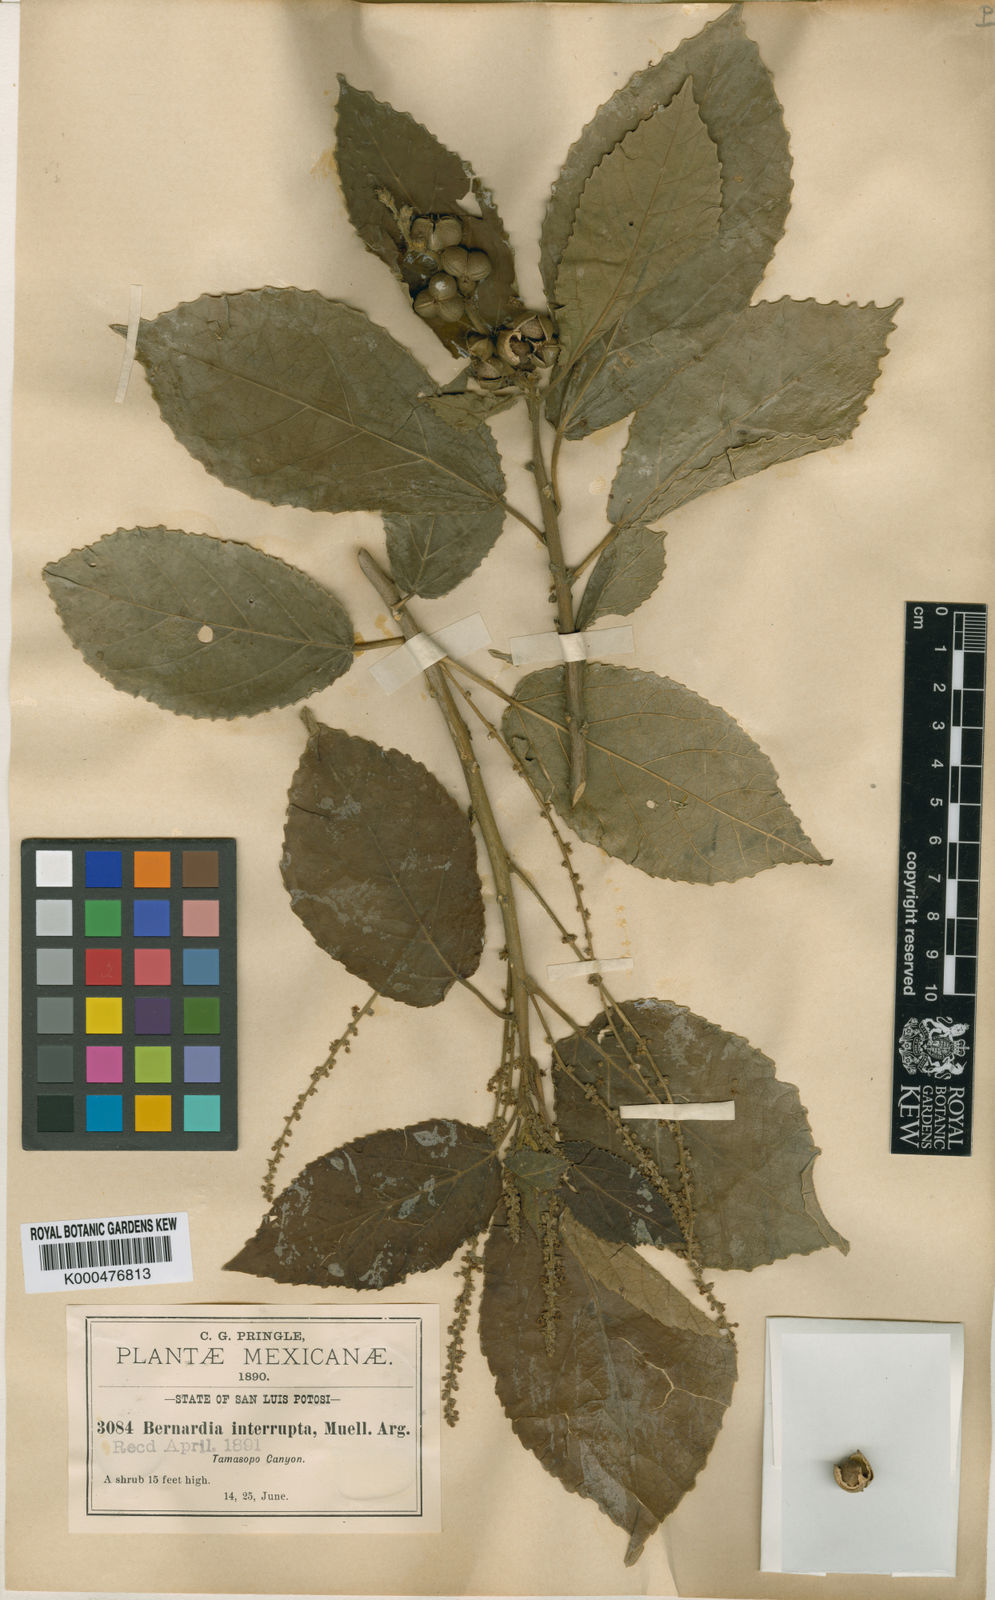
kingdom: Plantae
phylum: Tracheophyta
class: Magnoliopsida
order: Malpighiales
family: Euphorbiaceae
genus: Bernardia
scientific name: Bernardia
